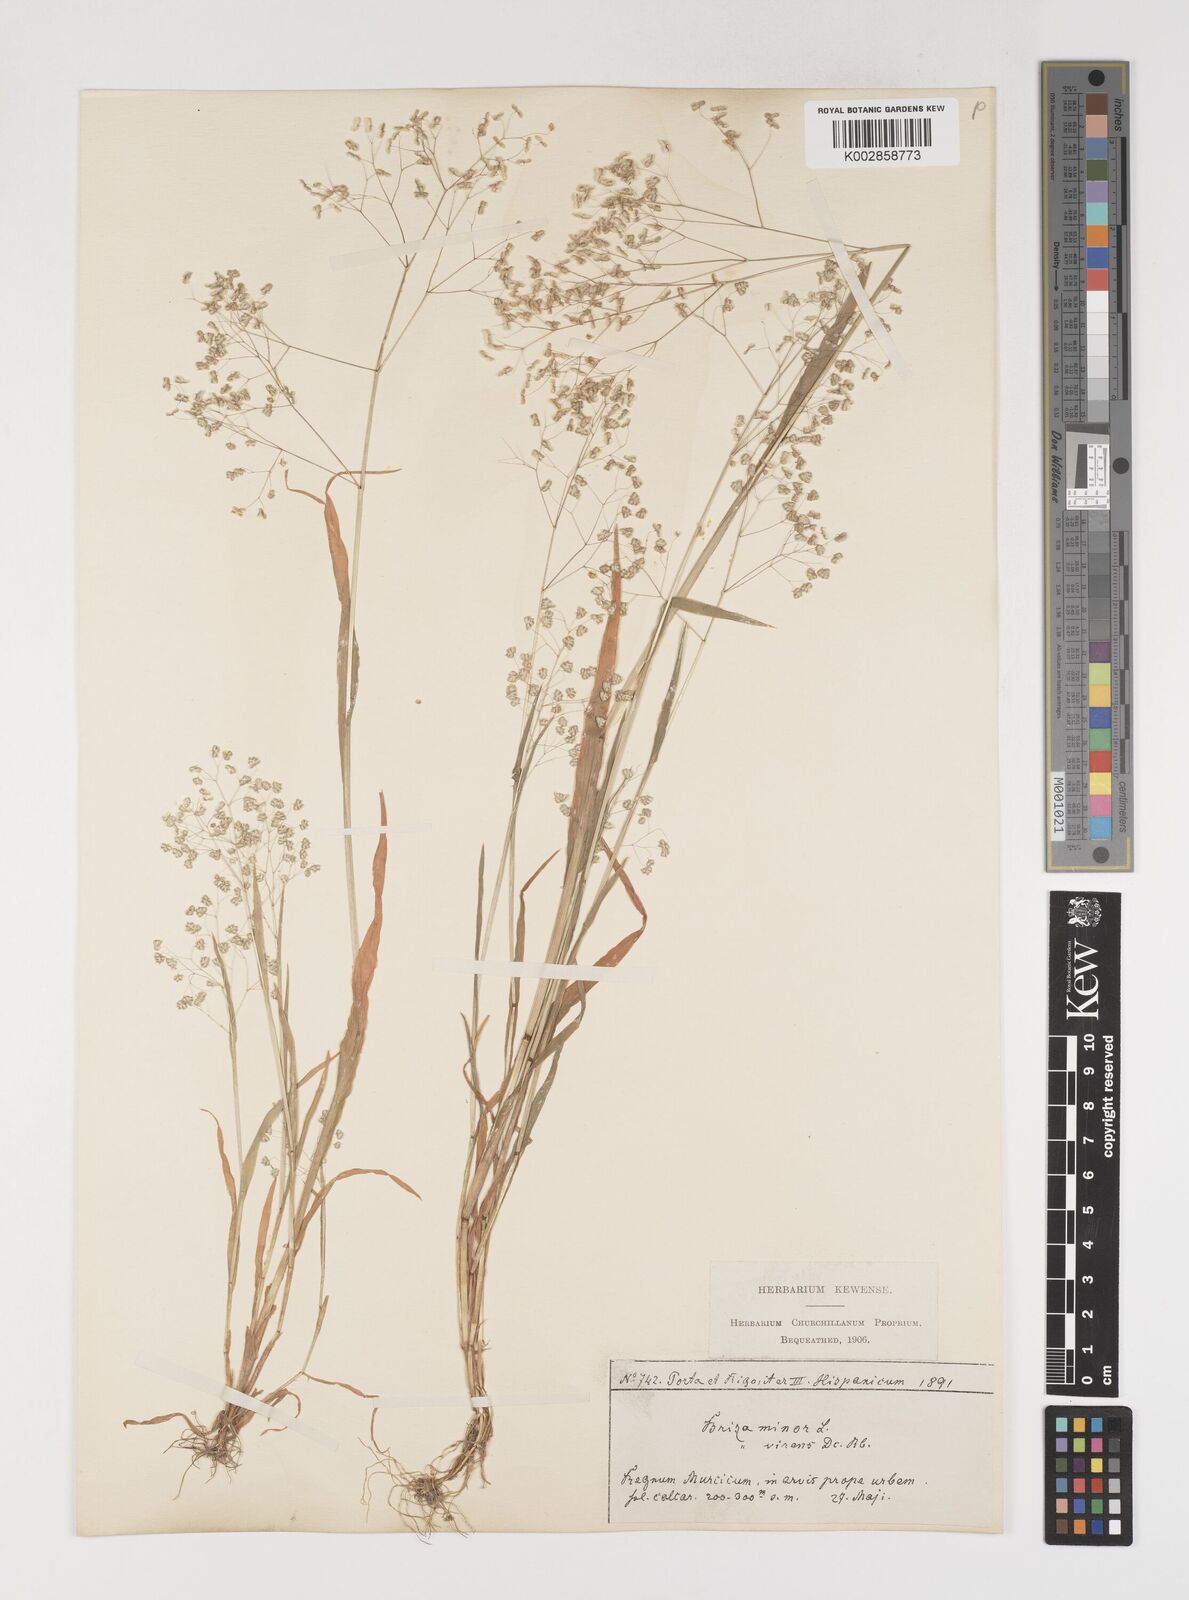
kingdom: Plantae
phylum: Tracheophyta
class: Liliopsida
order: Poales
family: Poaceae
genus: Briza
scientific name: Briza minor
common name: Lesser quaking-grass
